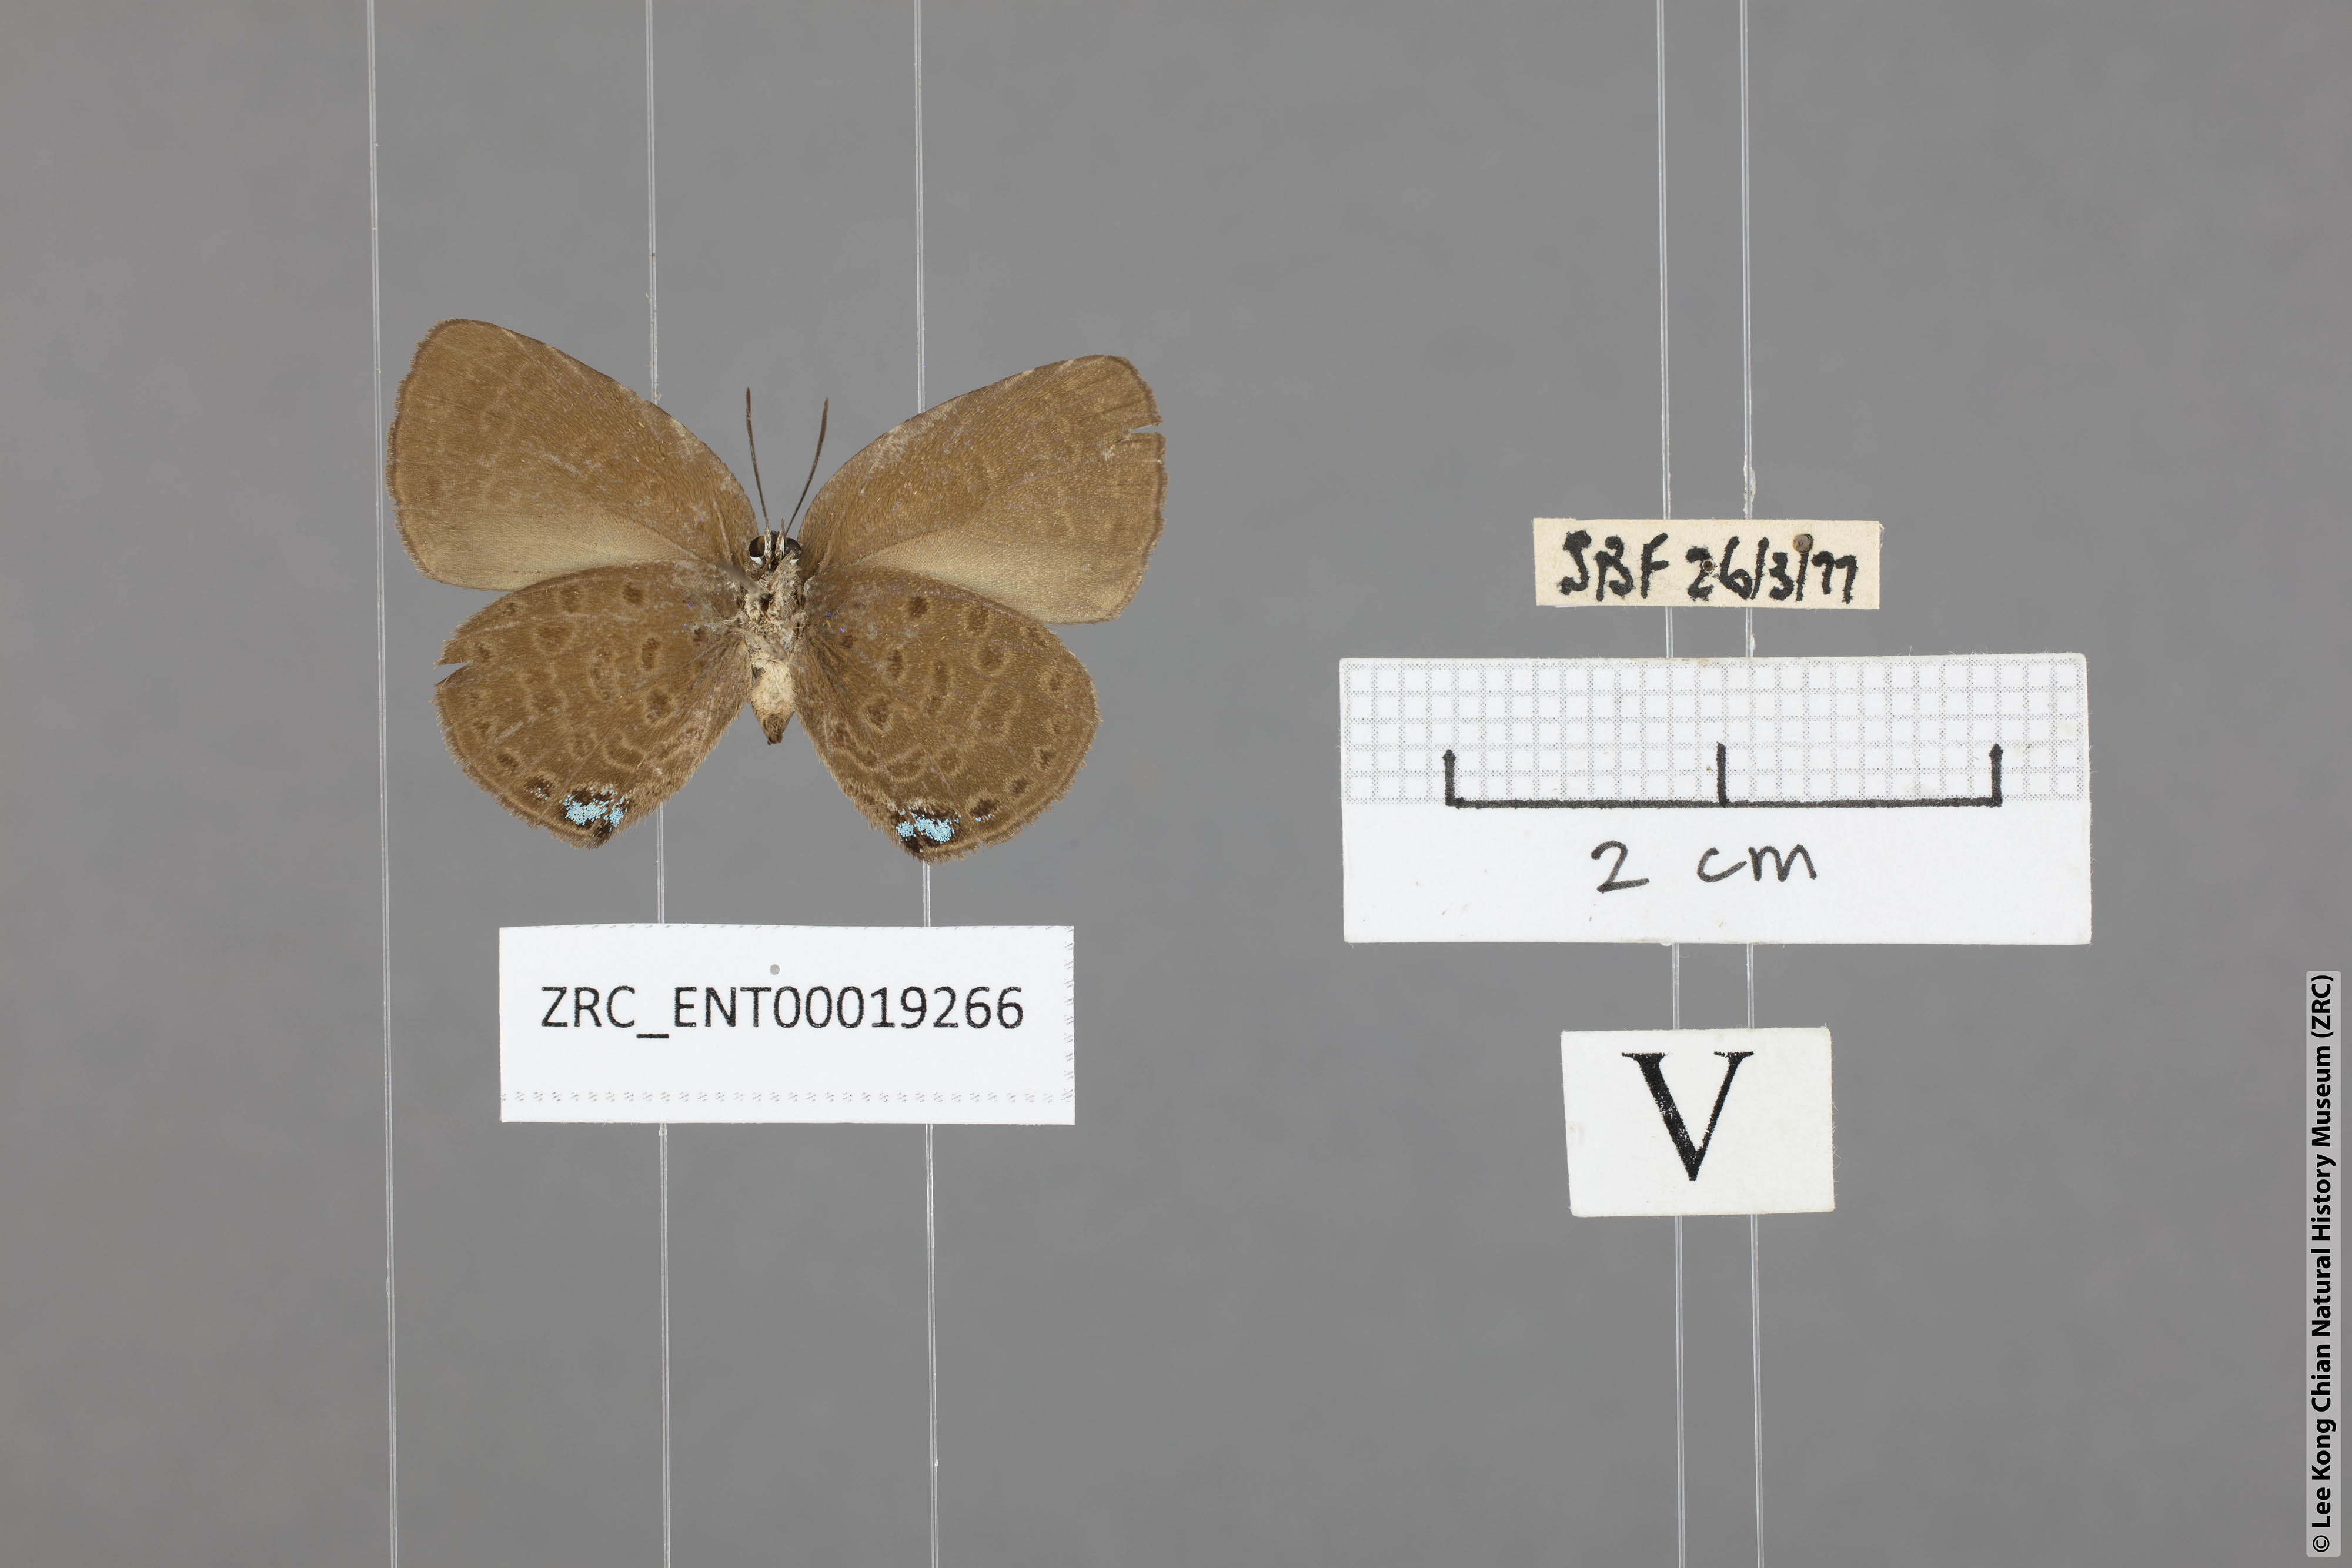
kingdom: Animalia
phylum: Arthropoda
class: Insecta
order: Lepidoptera
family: Lycaenidae
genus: Arhopala
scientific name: Arhopala avathina
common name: Lunulate yellow oakblue
